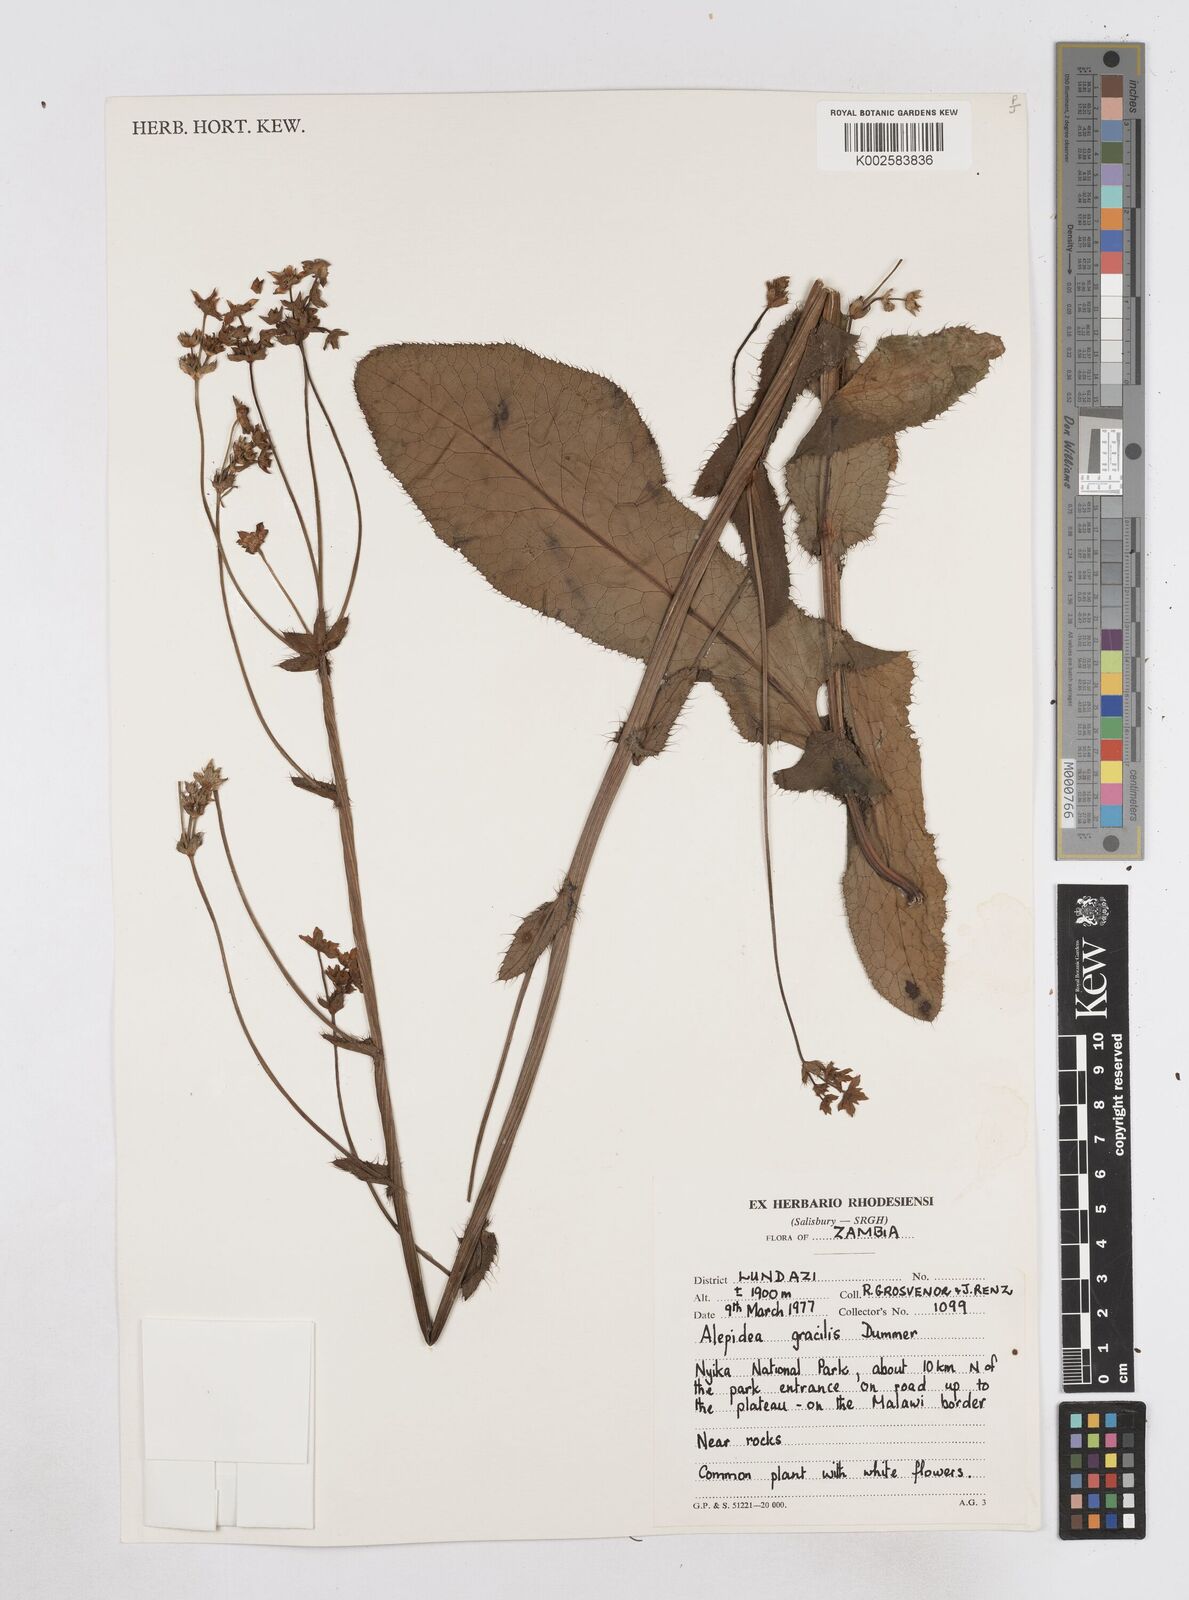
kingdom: Plantae
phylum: Tracheophyta
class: Magnoliopsida
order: Apiales
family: Apiaceae
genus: Alepidea
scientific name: Alepidea peduncularis
